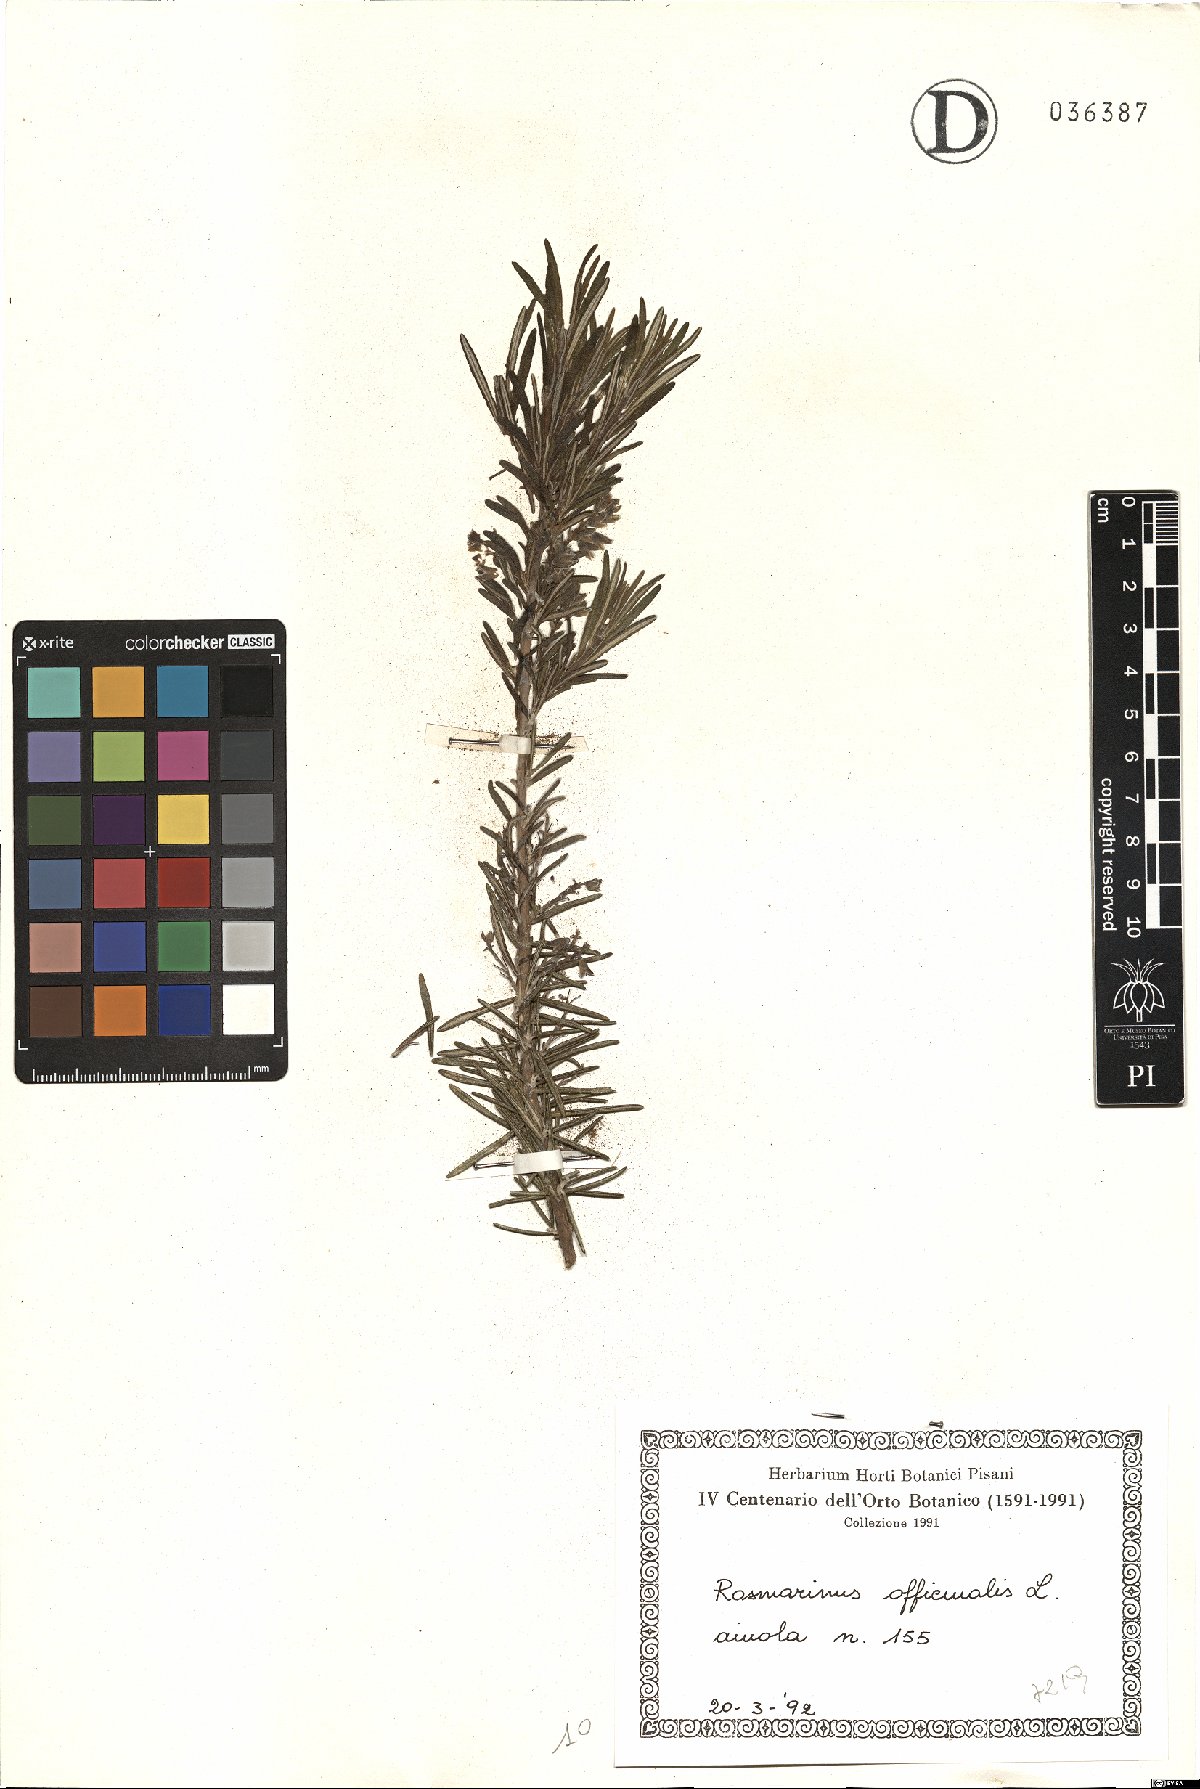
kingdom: Plantae
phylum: Tracheophyta
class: Magnoliopsida
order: Lamiales
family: Lamiaceae
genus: Salvia
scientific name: Salvia rosmarinus
